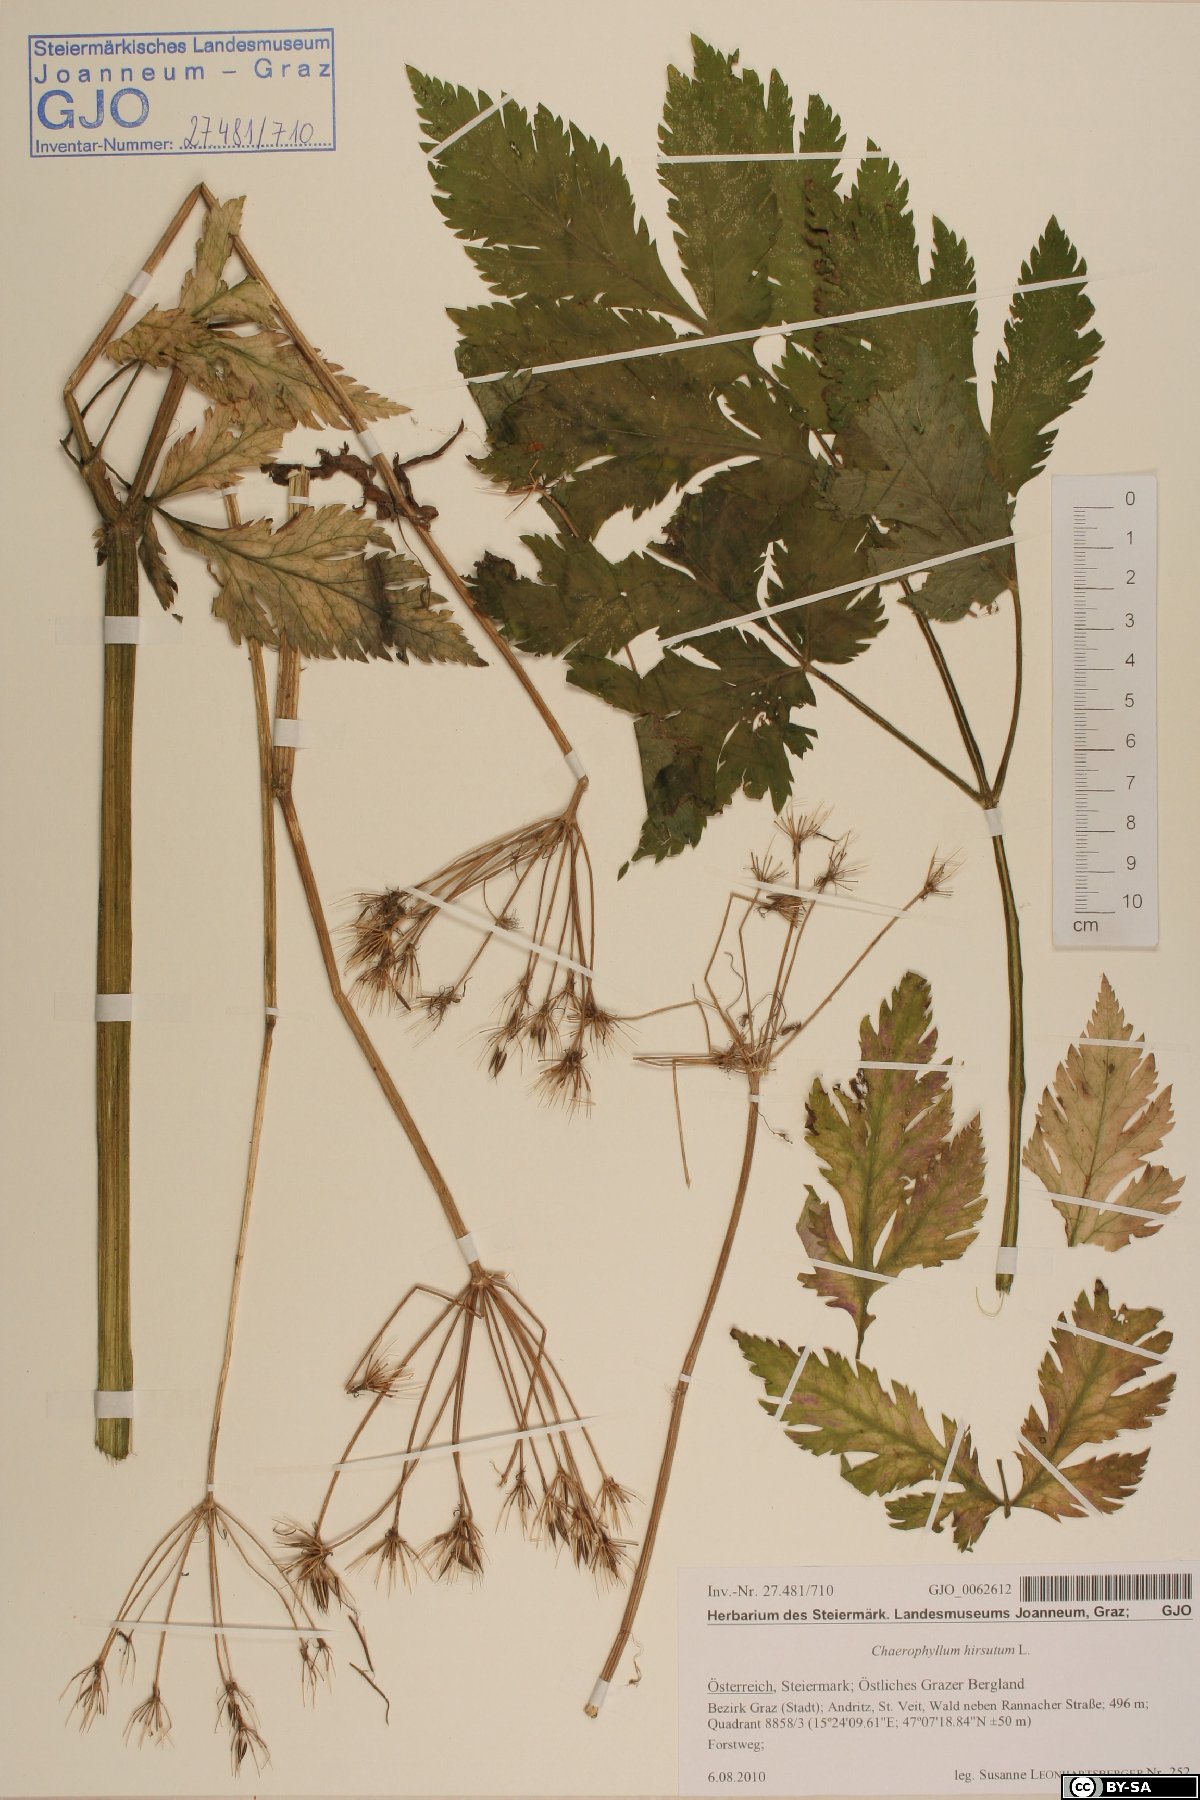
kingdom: Plantae
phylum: Tracheophyta
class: Magnoliopsida
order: Apiales
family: Apiaceae
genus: Chaerophyllum
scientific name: Chaerophyllum hirsutum
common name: Hairy chervil
